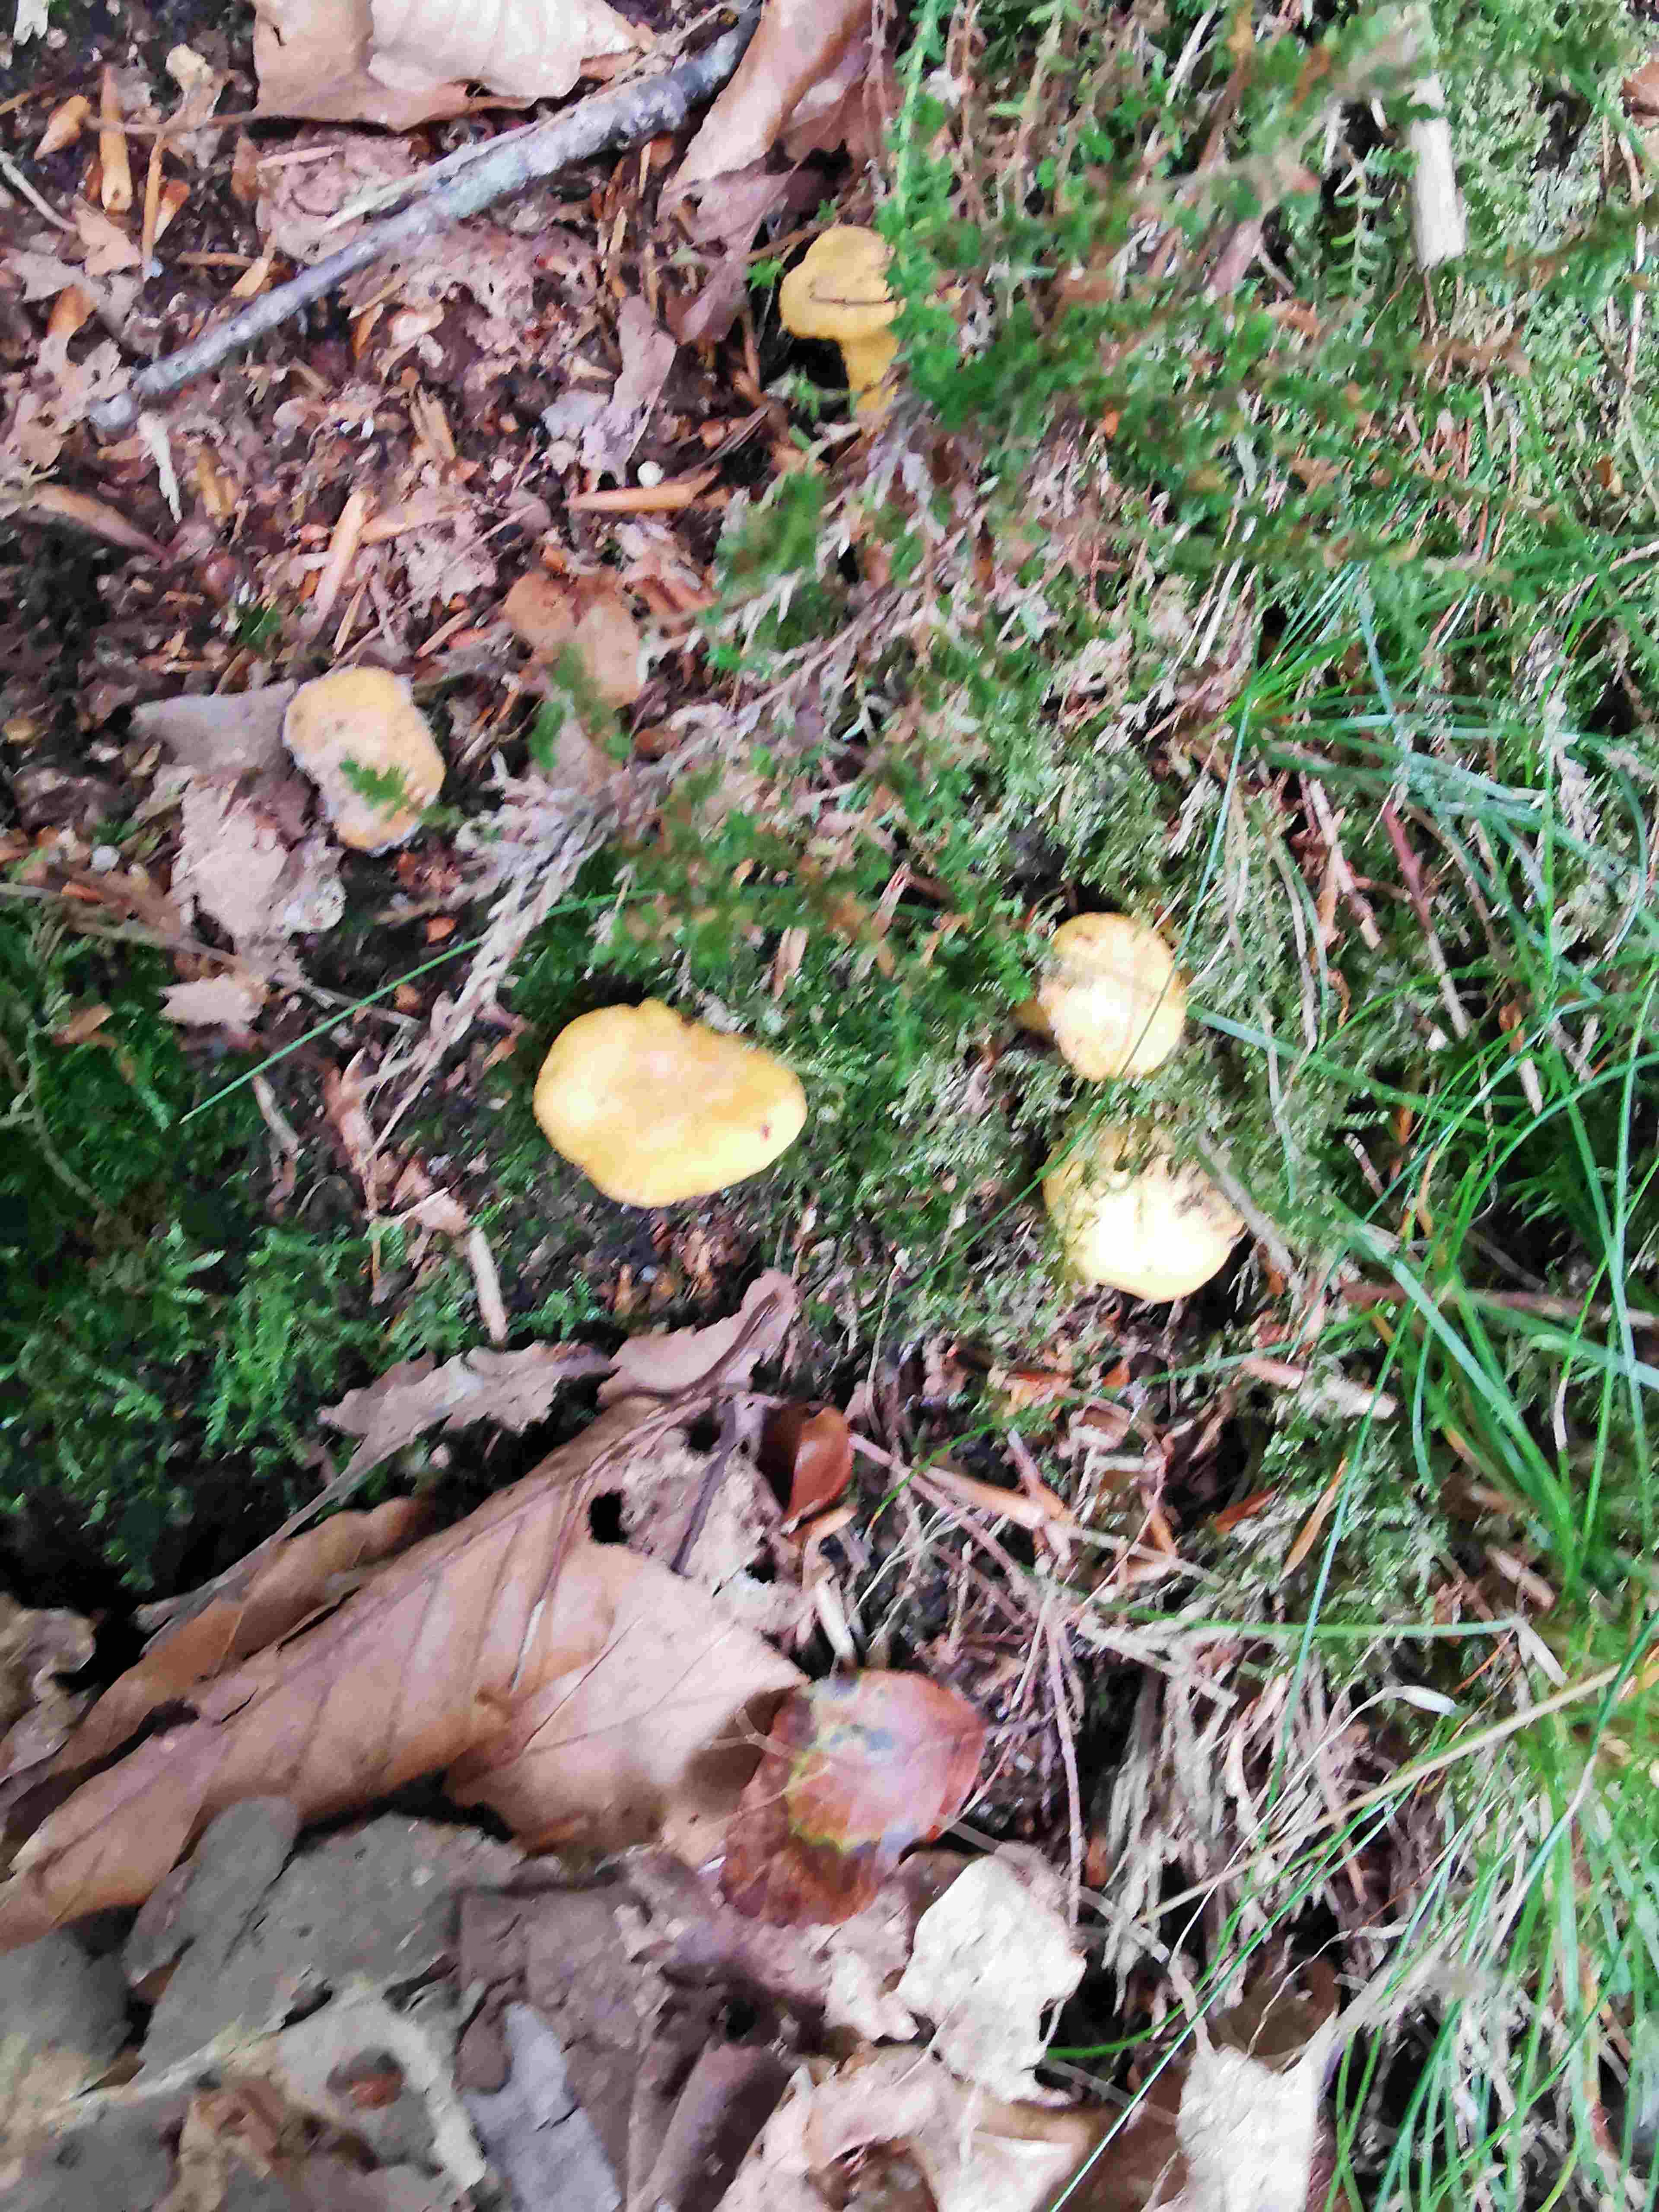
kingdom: Fungi
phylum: Basidiomycota
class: Agaricomycetes
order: Cantharellales
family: Hydnaceae
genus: Cantharellus
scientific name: Cantharellus cibarius
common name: almindelig kantarel
